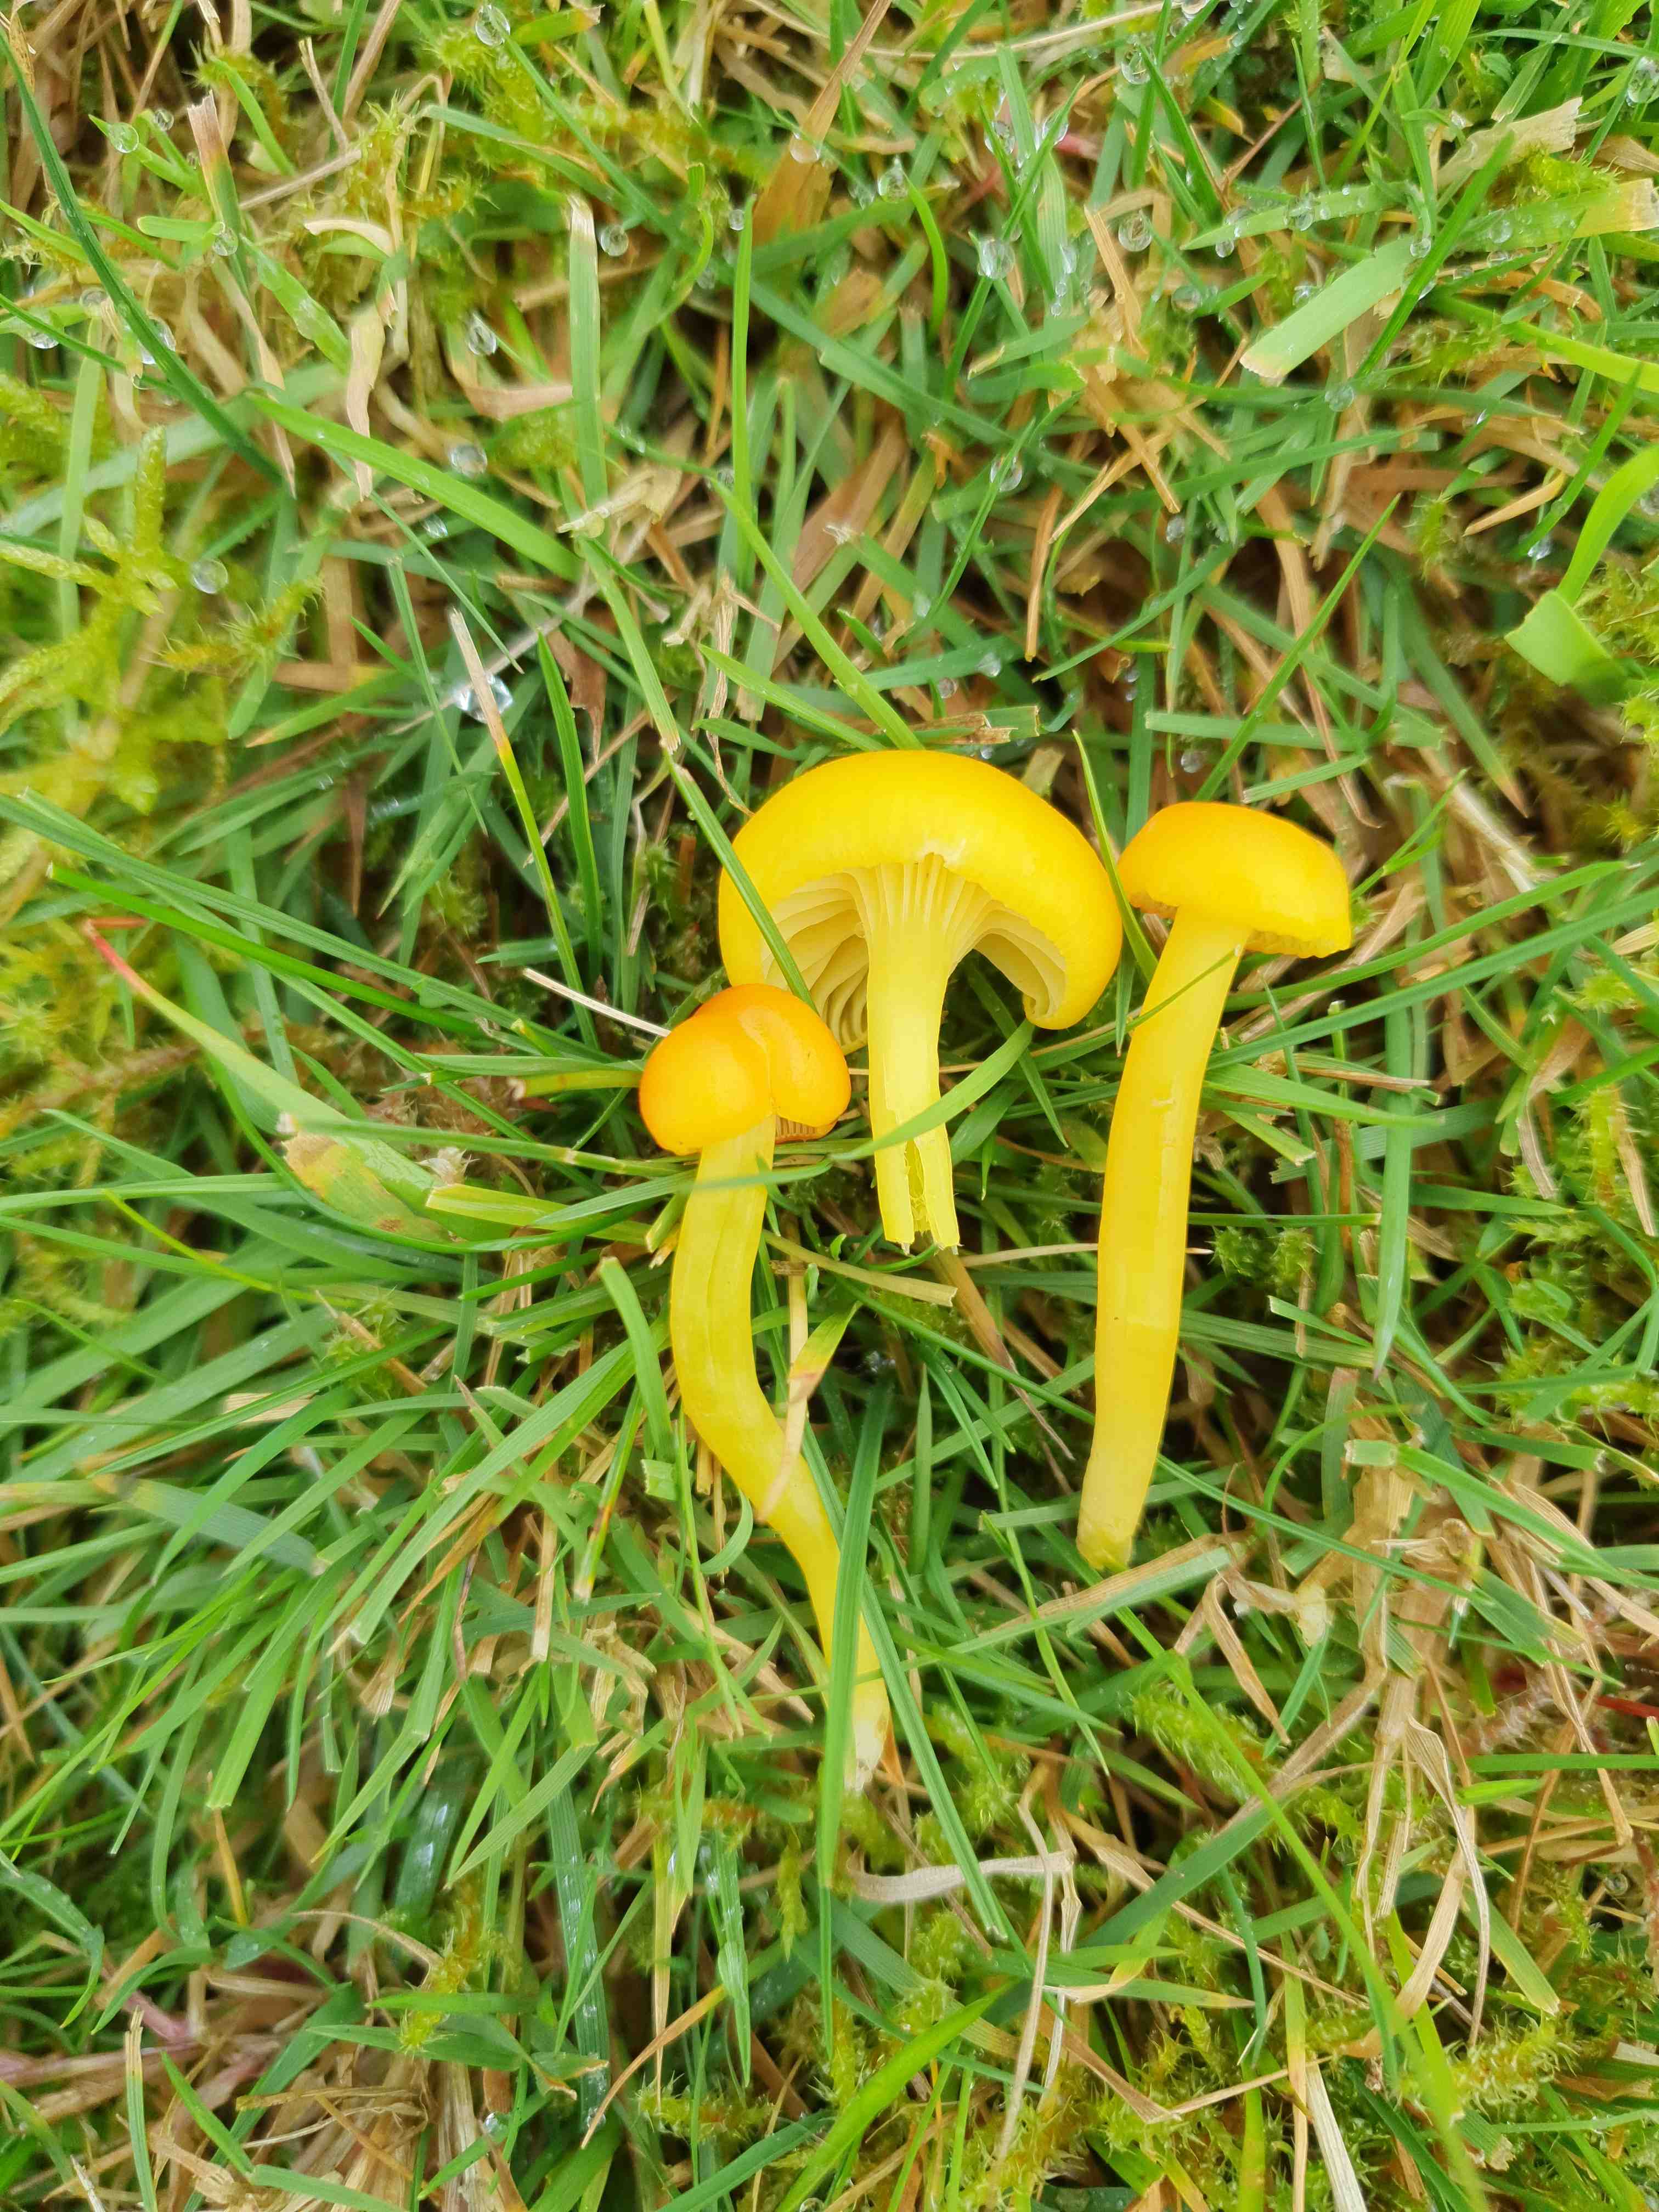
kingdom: Fungi
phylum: Basidiomycota
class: Agaricomycetes
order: Agaricales
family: Hygrophoraceae
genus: Hygrocybe
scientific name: Hygrocybe ceracea
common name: voksgul vokshat
